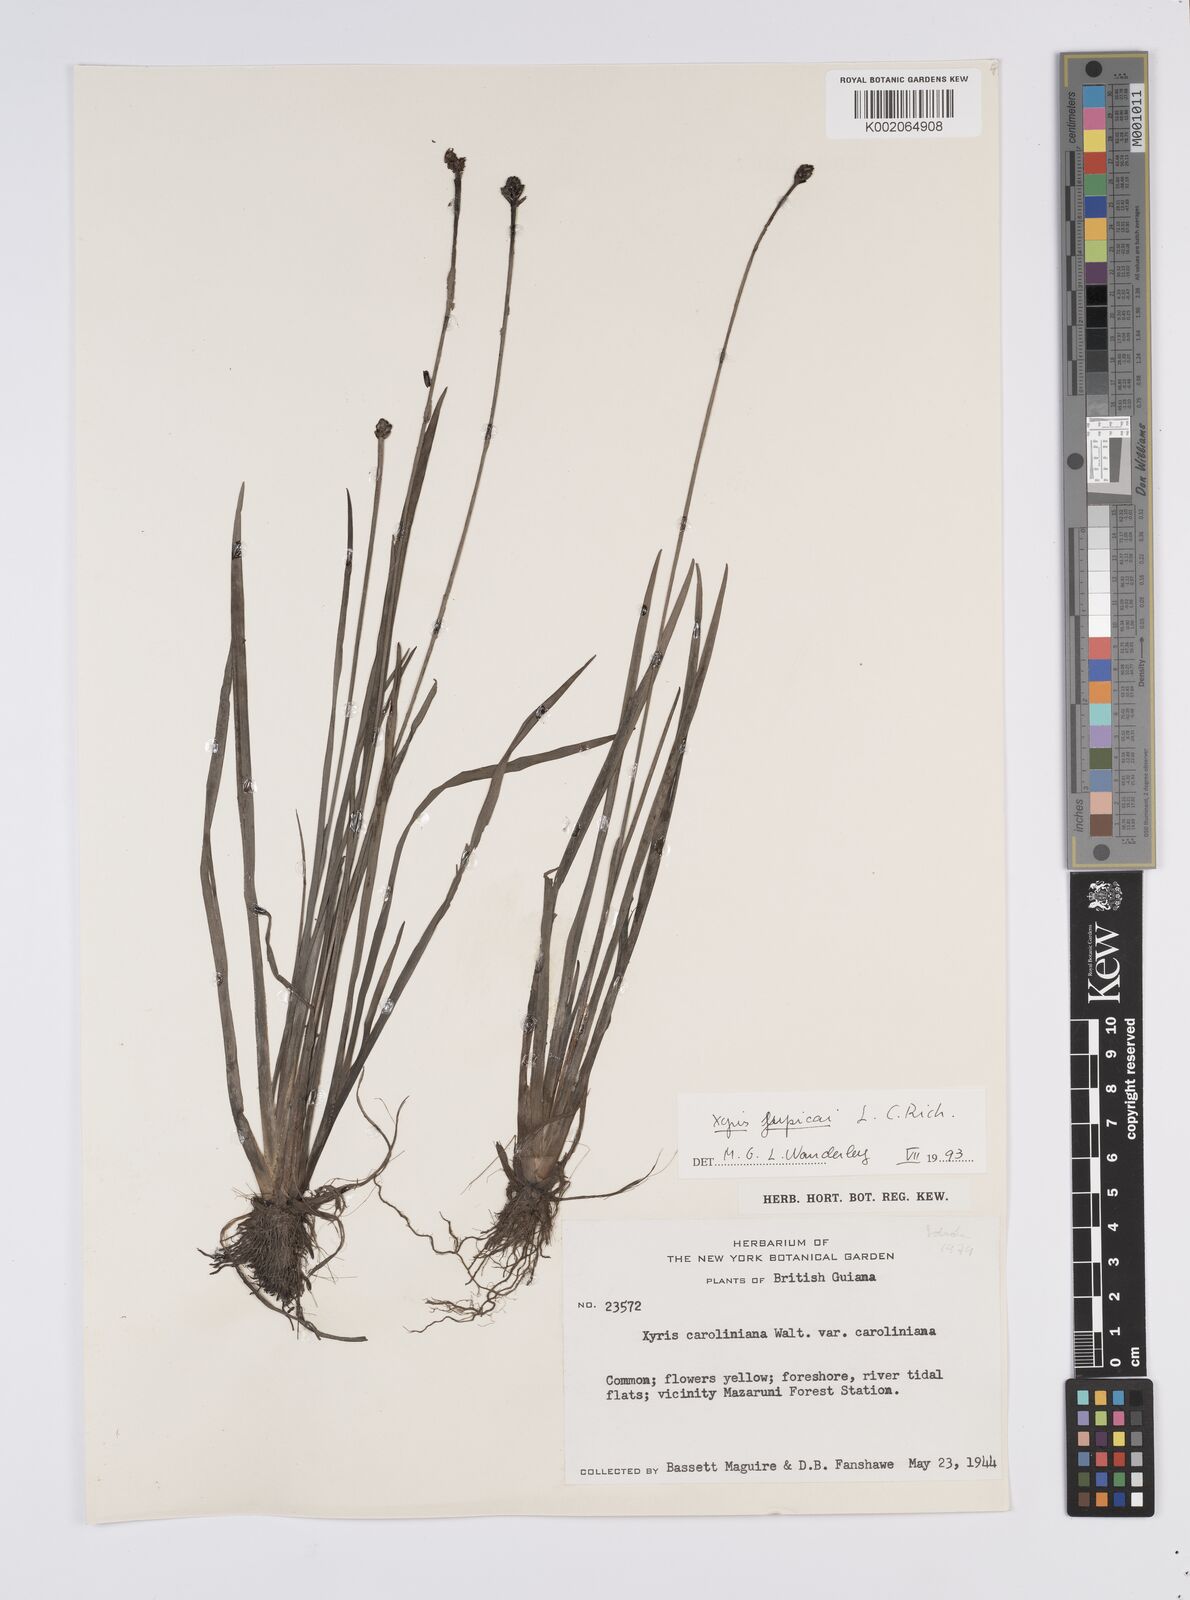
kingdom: Plantae
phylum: Tracheophyta
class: Liliopsida
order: Poales
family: Xyridaceae
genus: Xyris
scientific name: Xyris jupicai
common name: Richard's yelloweyed grass
